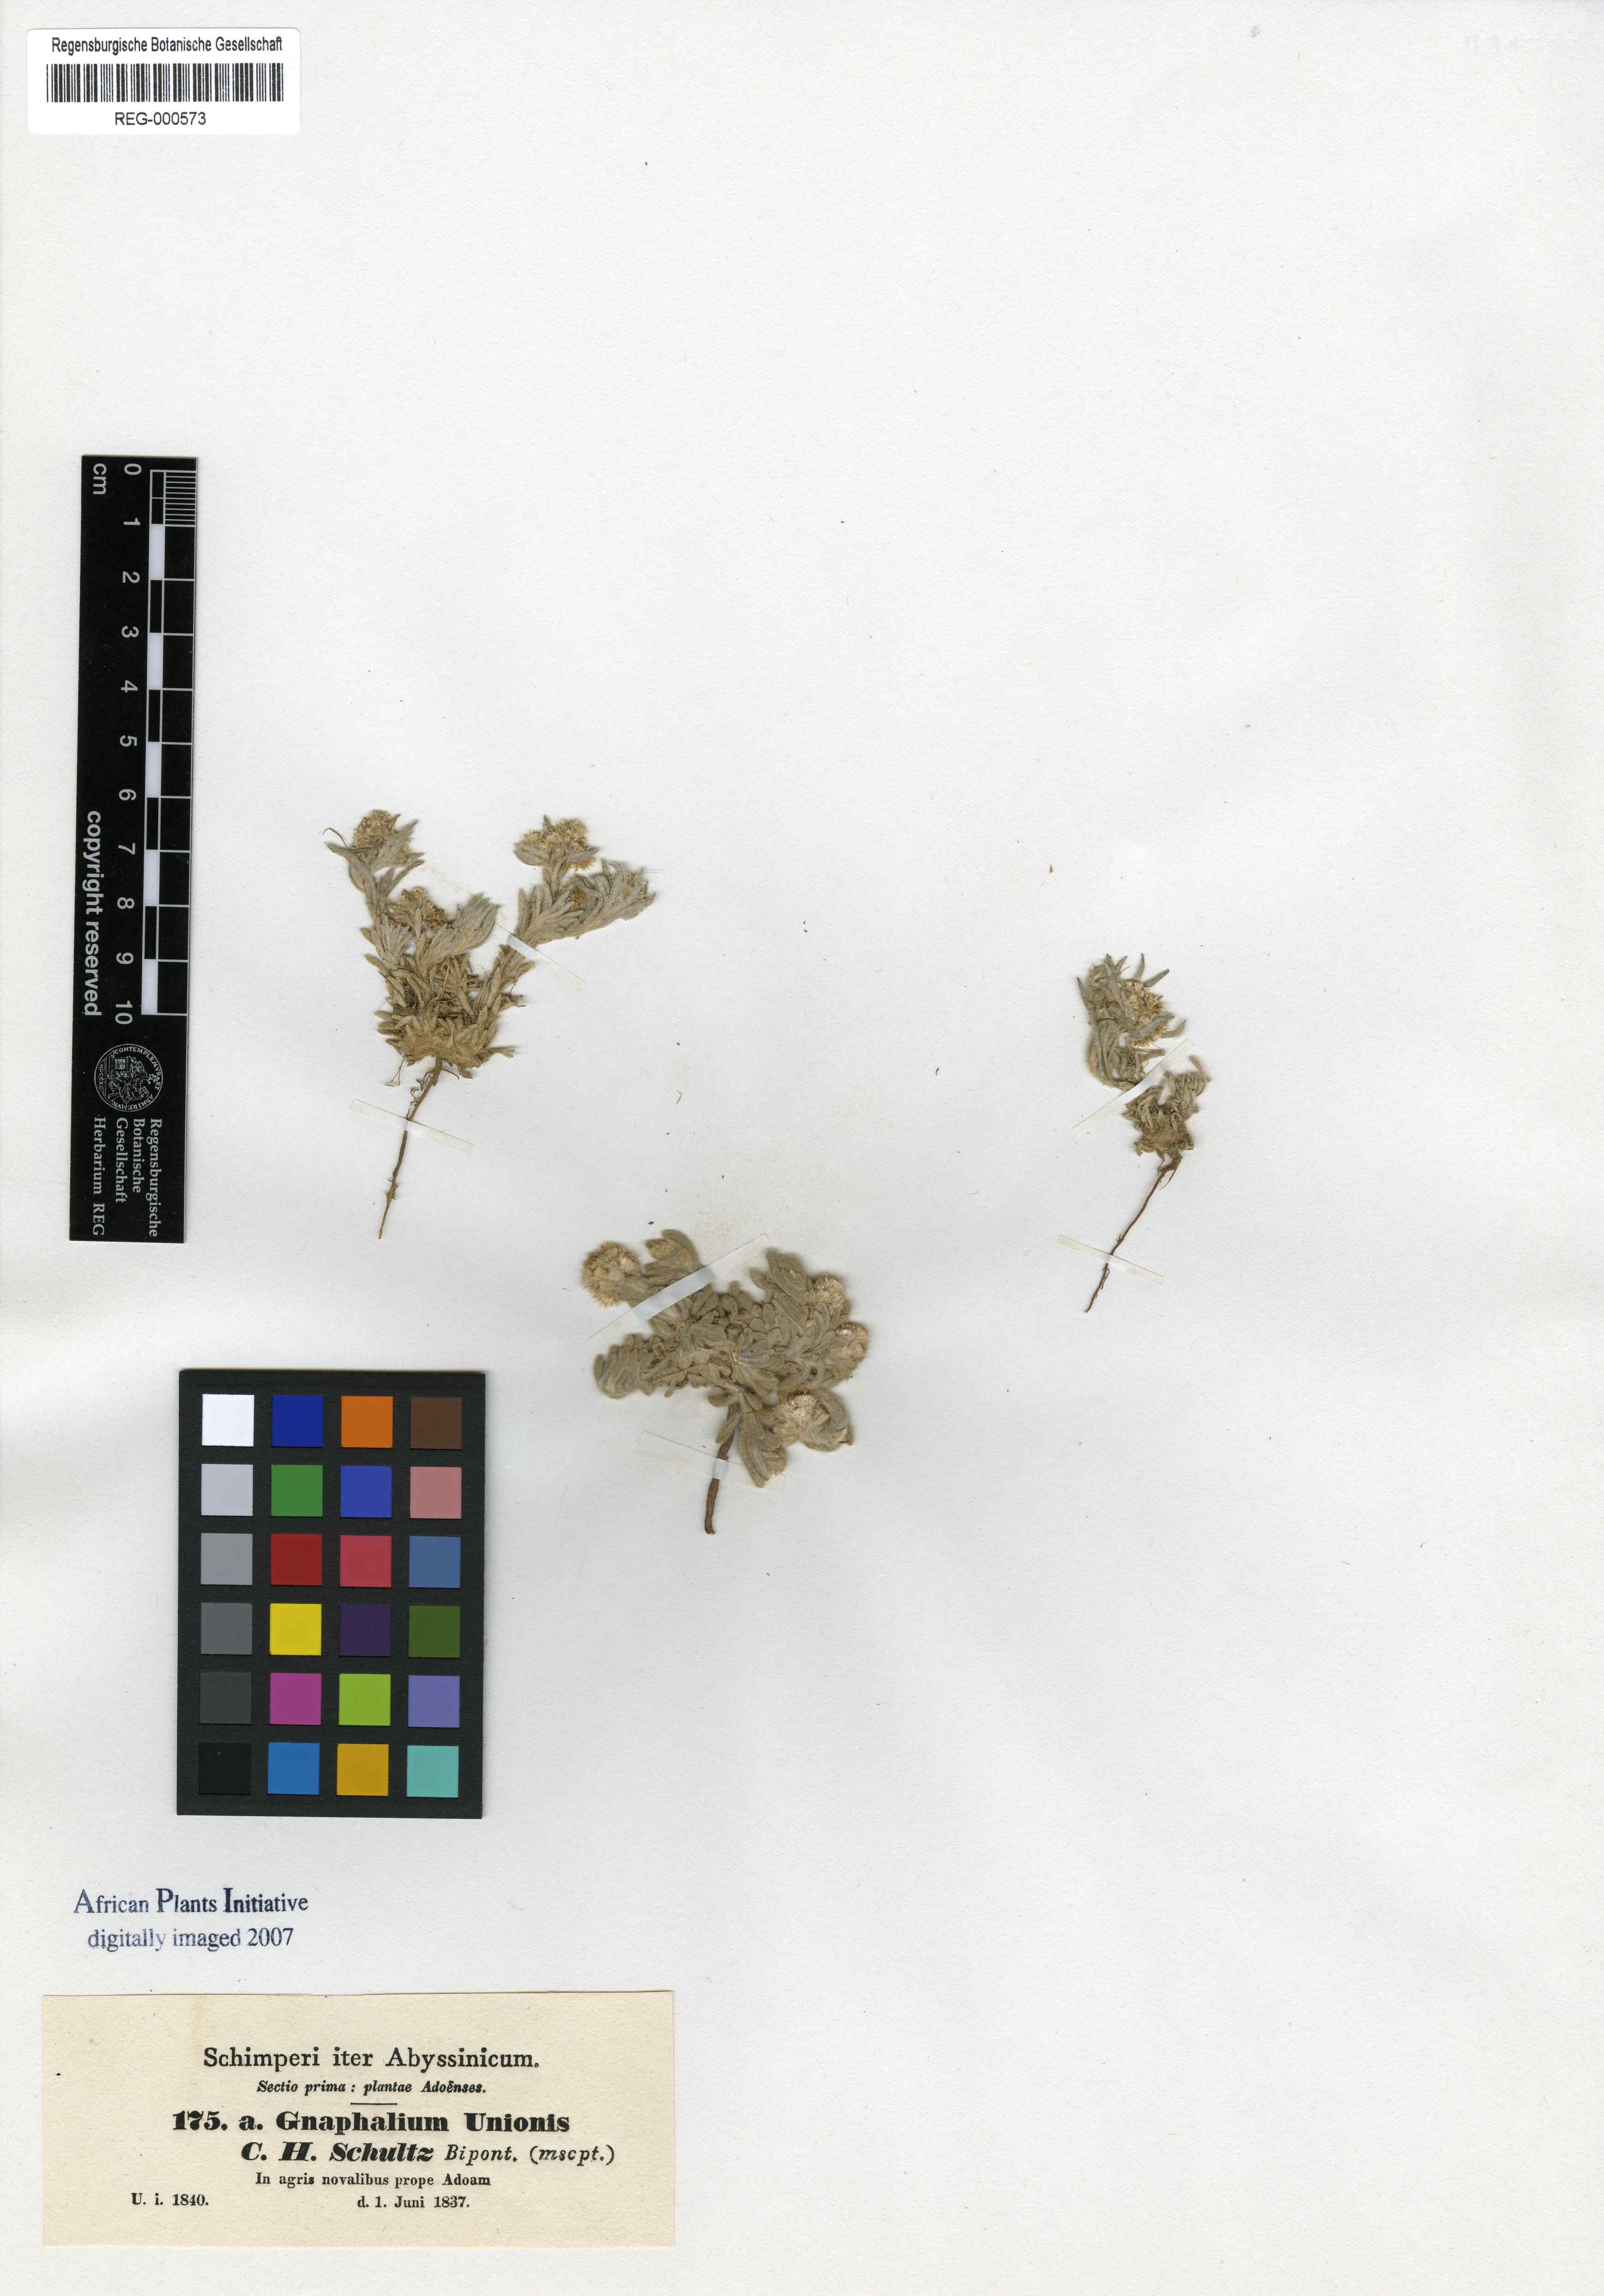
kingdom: Plantae
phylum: Tracheophyta
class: Magnoliopsida
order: Asterales
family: Asteraceae
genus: Gnaphalium
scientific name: Gnaphalium unionis
